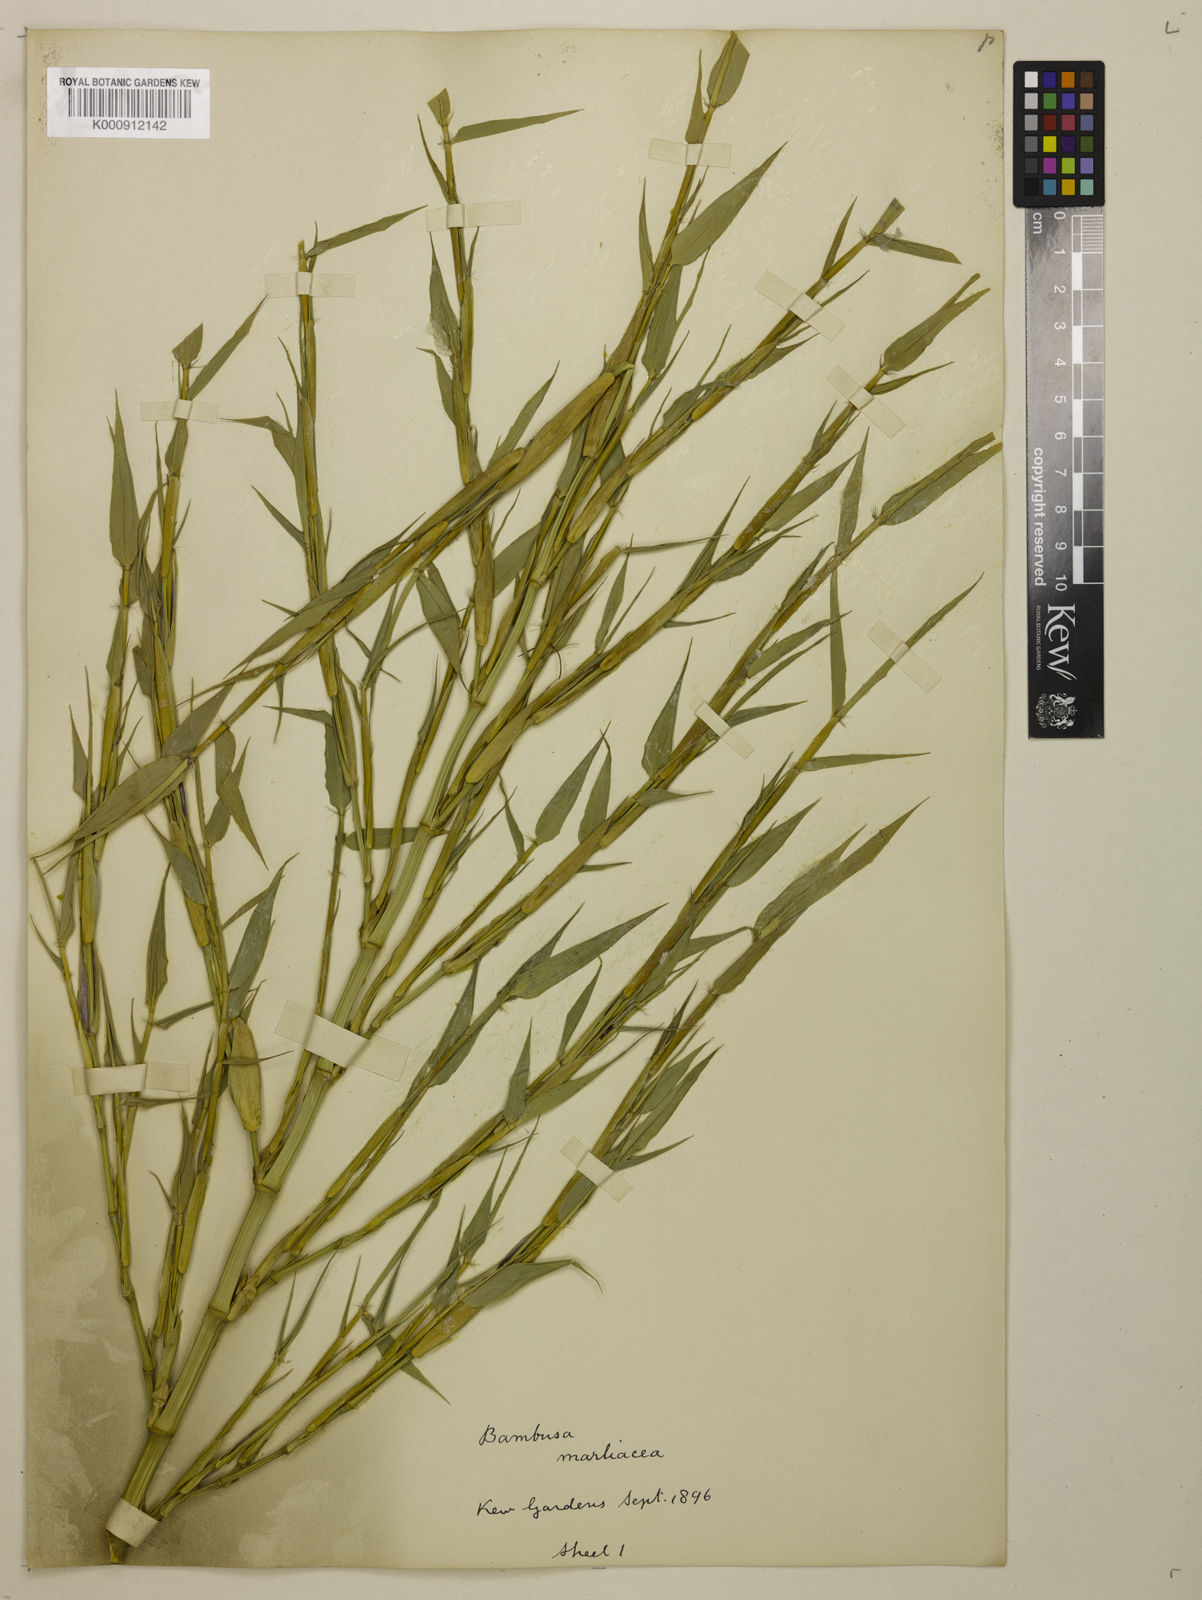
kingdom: Plantae
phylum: Tracheophyta
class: Liliopsida
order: Poales
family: Poaceae
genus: Phyllostachys
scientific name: Phyllostachys reticulata
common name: Bamboo
